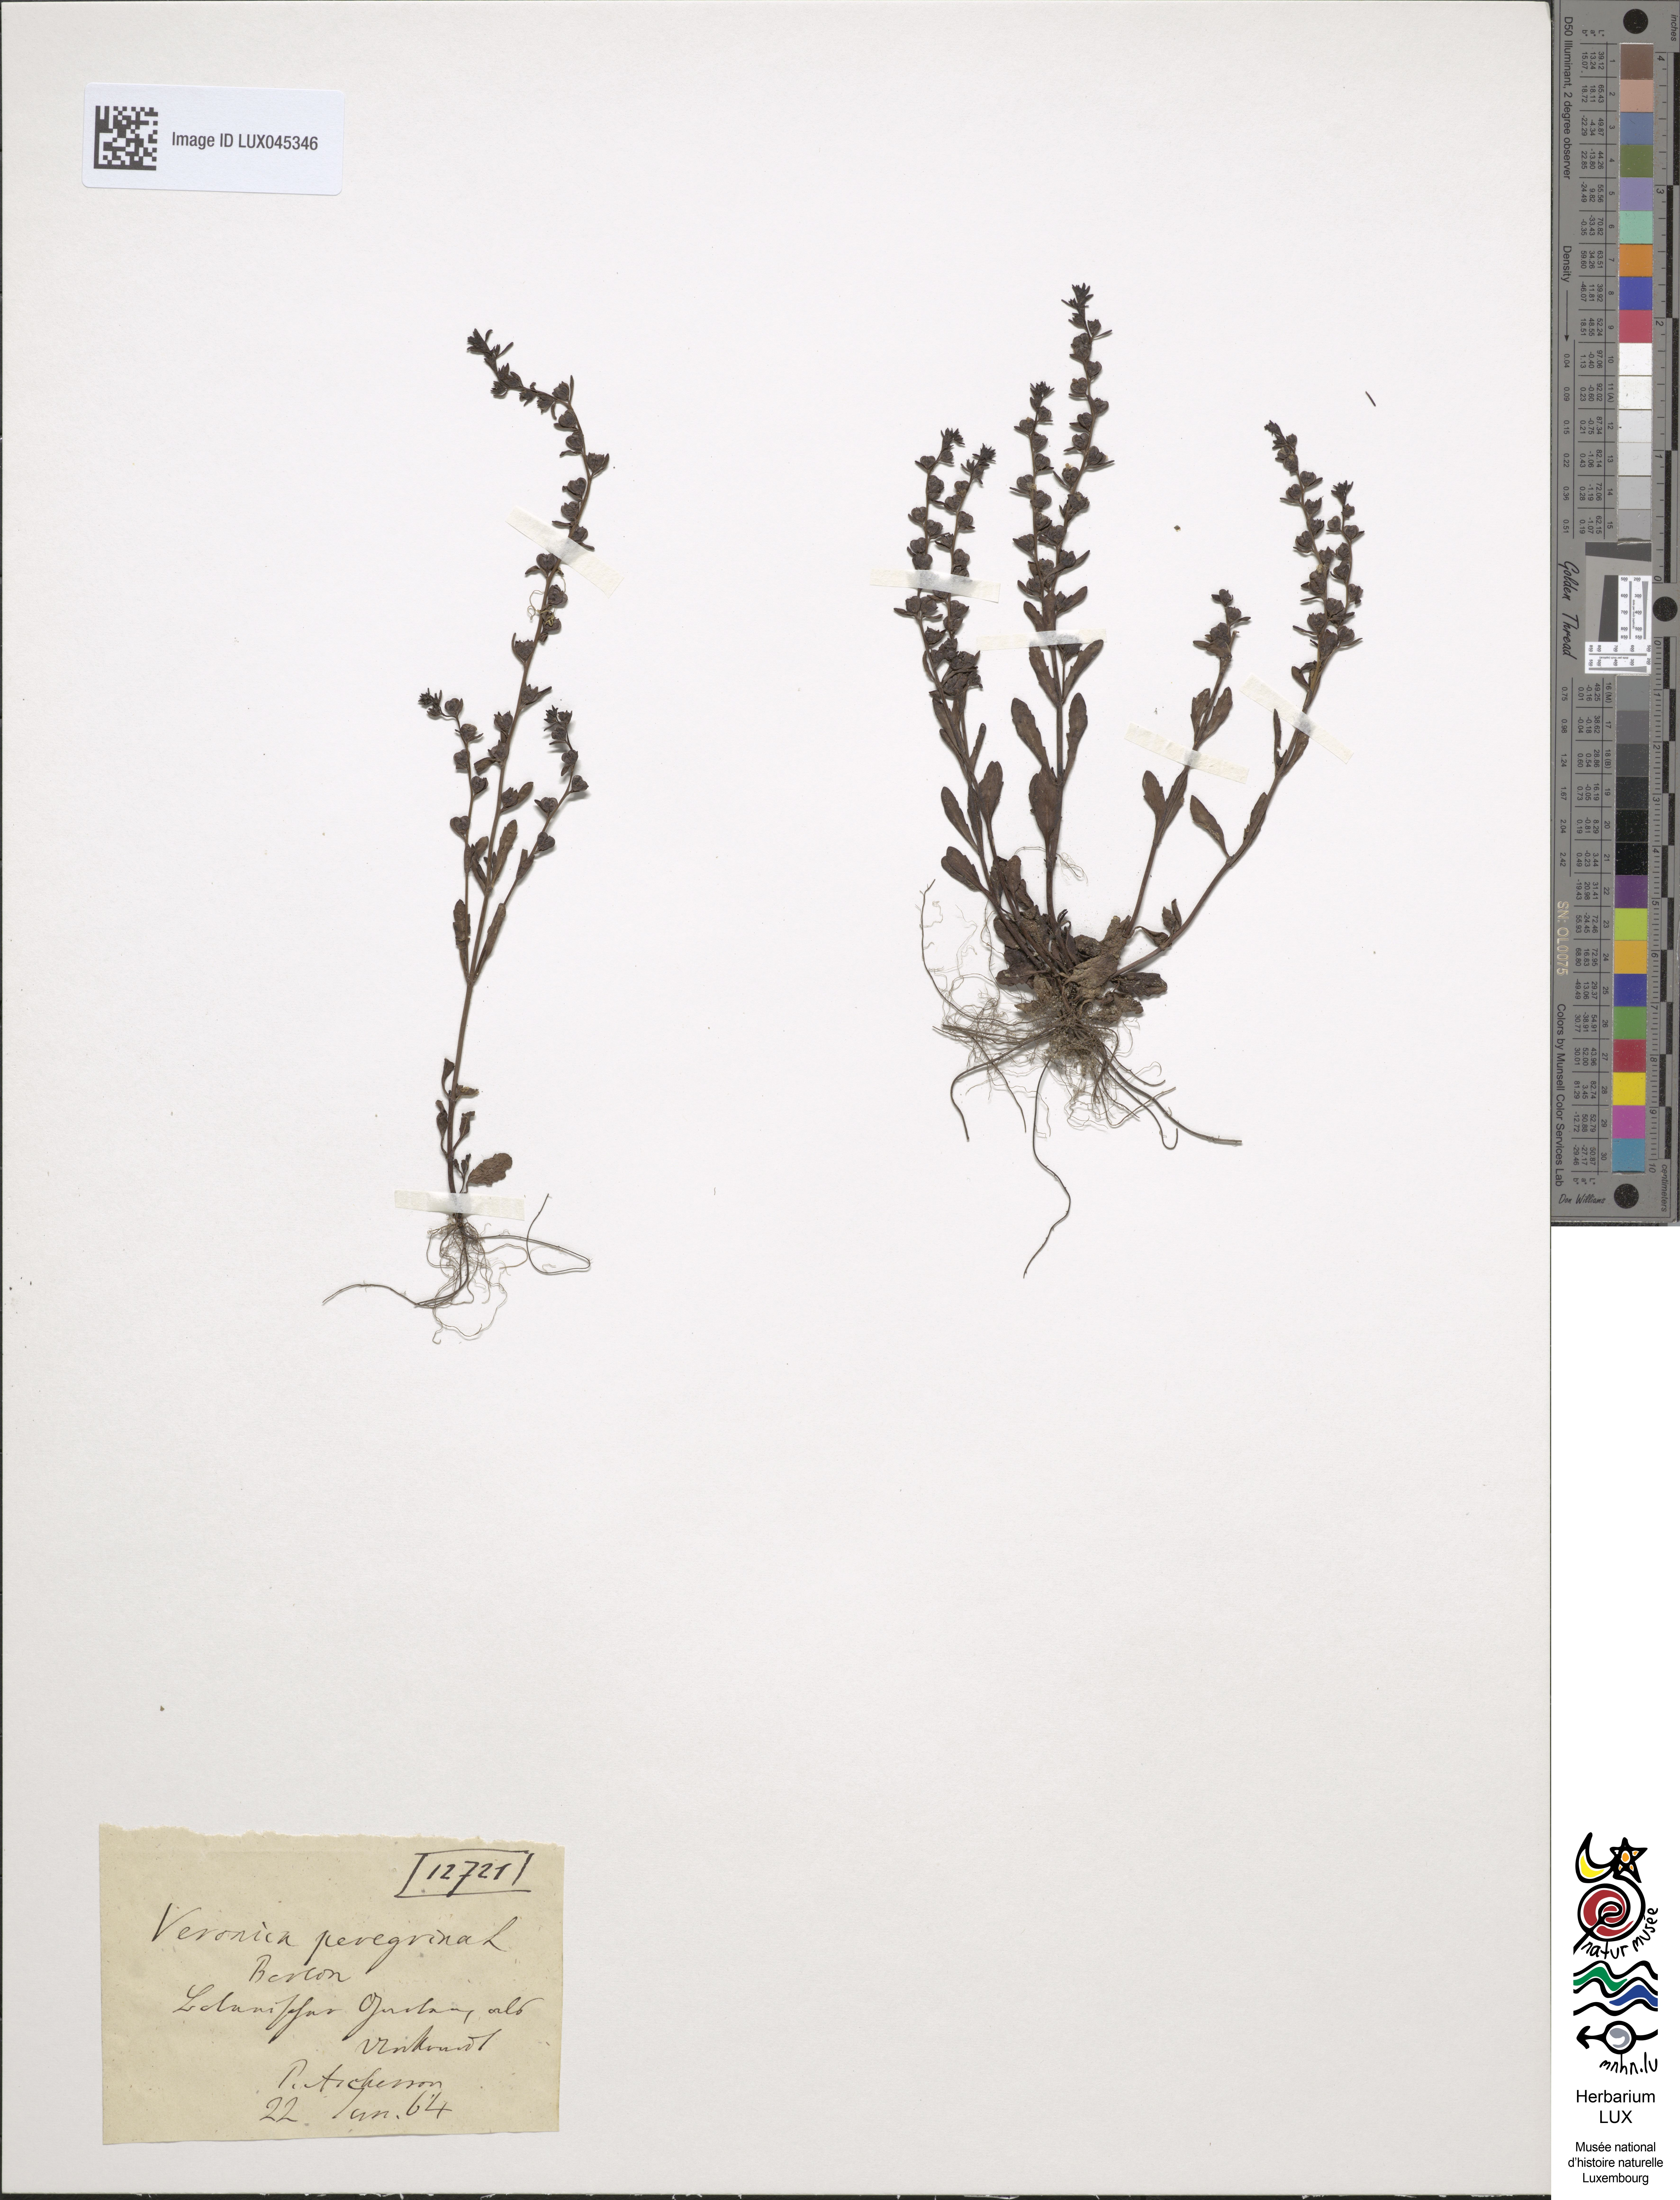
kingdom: Plantae
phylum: Tracheophyta
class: Magnoliopsida
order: Lamiales
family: Plantaginaceae
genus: Veronica
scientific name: Veronica peregrina
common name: Neckweed
